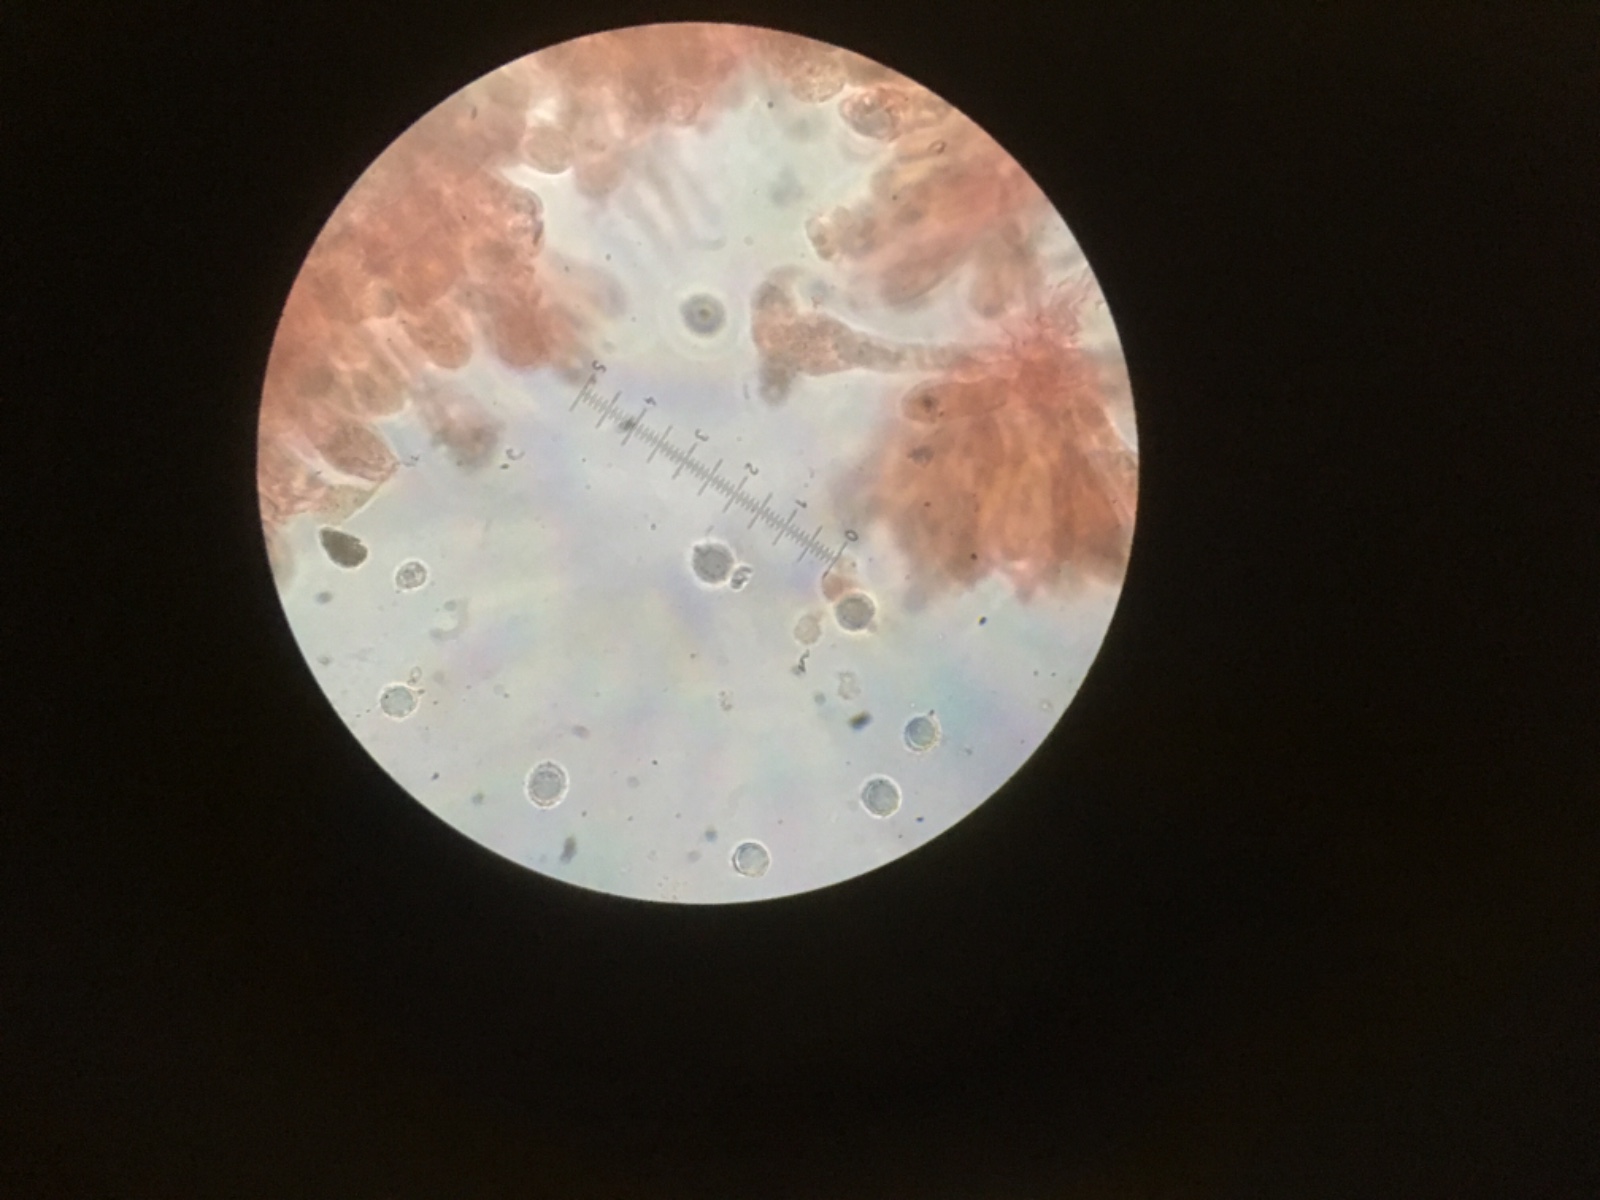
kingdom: Fungi
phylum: Basidiomycota
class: Agaricomycetes
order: Russulales
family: Russulaceae
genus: Russula
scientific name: Russula turci
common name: jod-skørhat
